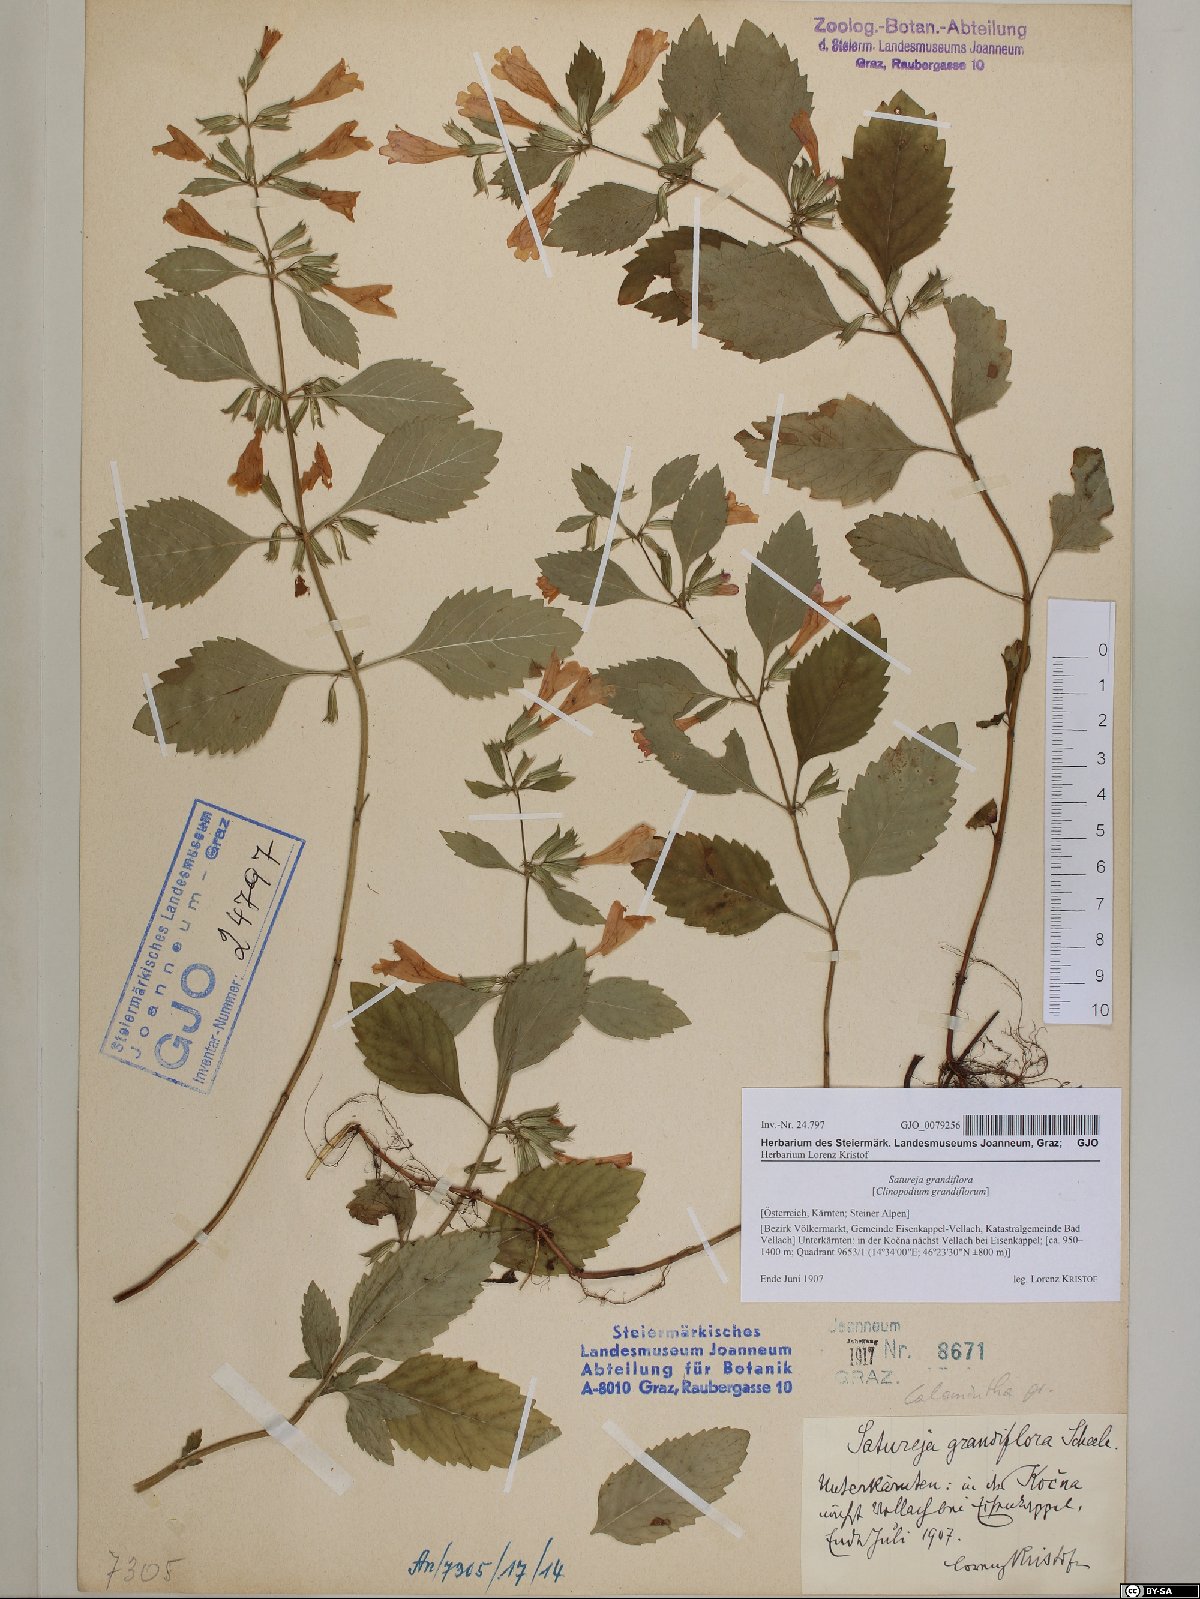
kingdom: Plantae
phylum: Tracheophyta
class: Magnoliopsida
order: Lamiales
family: Lamiaceae
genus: Clinopodium
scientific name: Clinopodium grandiflorum
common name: Greater calamint
